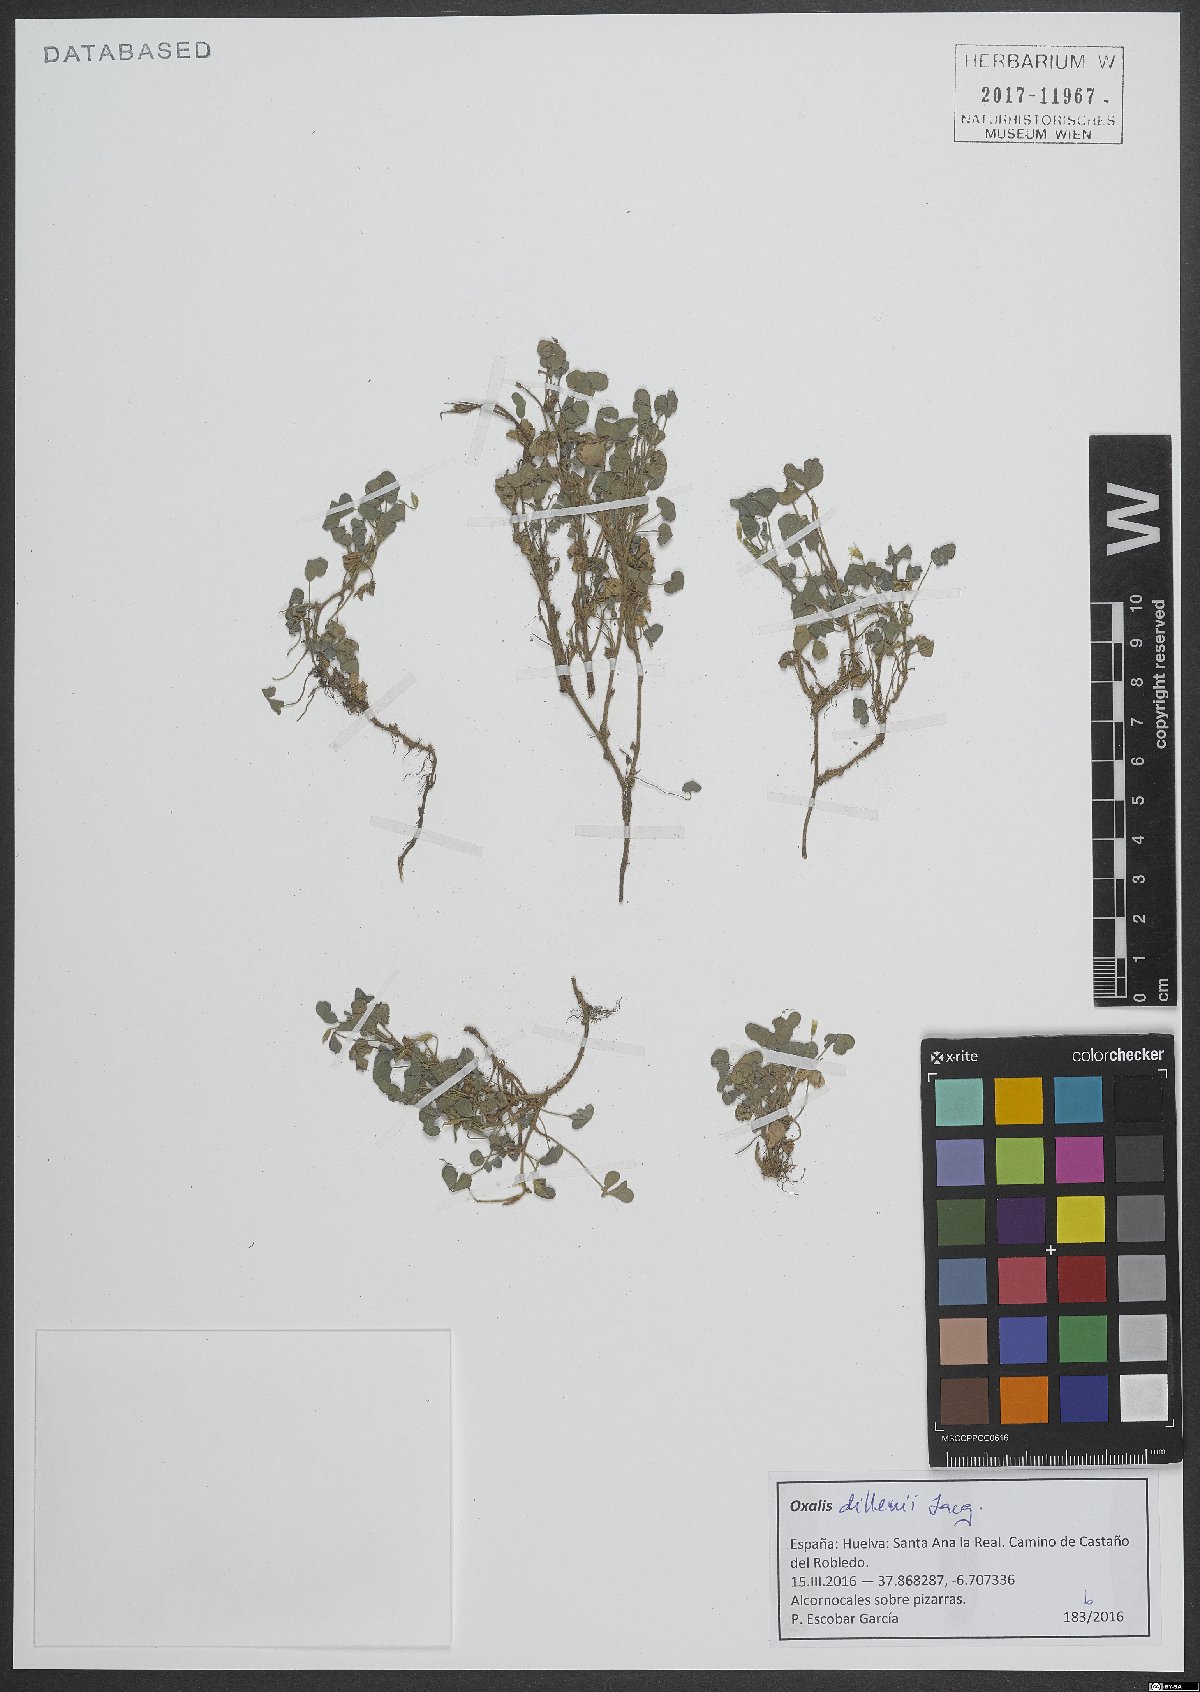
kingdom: Plantae
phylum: Tracheophyta
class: Magnoliopsida
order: Oxalidales
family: Oxalidaceae
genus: Oxalis
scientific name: Oxalis dillenii
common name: Sussex yellow-sorrel
